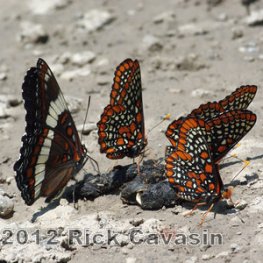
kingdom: Animalia
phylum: Arthropoda
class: Insecta
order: Lepidoptera
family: Nymphalidae
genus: Euphydryas
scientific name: Euphydryas phaeton
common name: Baltimore Checkerspot
